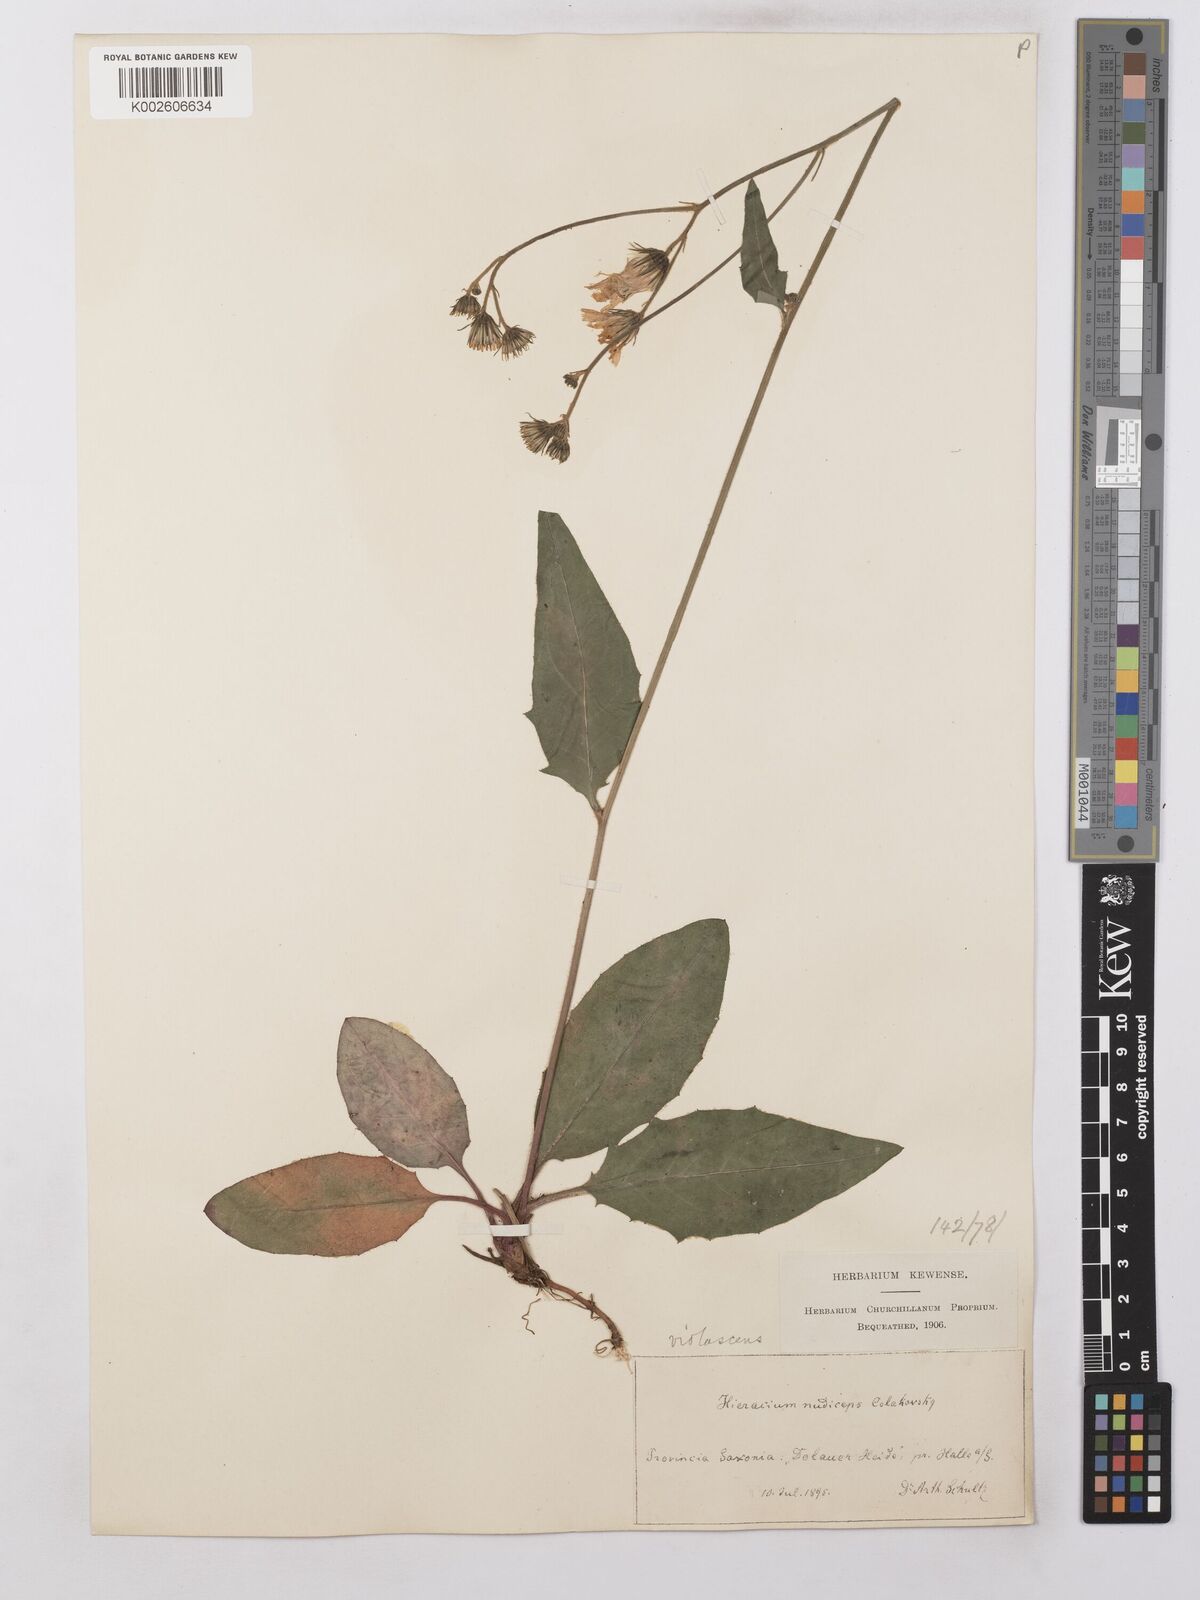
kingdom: Plantae
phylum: Tracheophyta
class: Magnoliopsida
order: Asterales
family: Asteraceae
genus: Hieracium
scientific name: Hieracium lachenalii
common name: Common hawkweed
